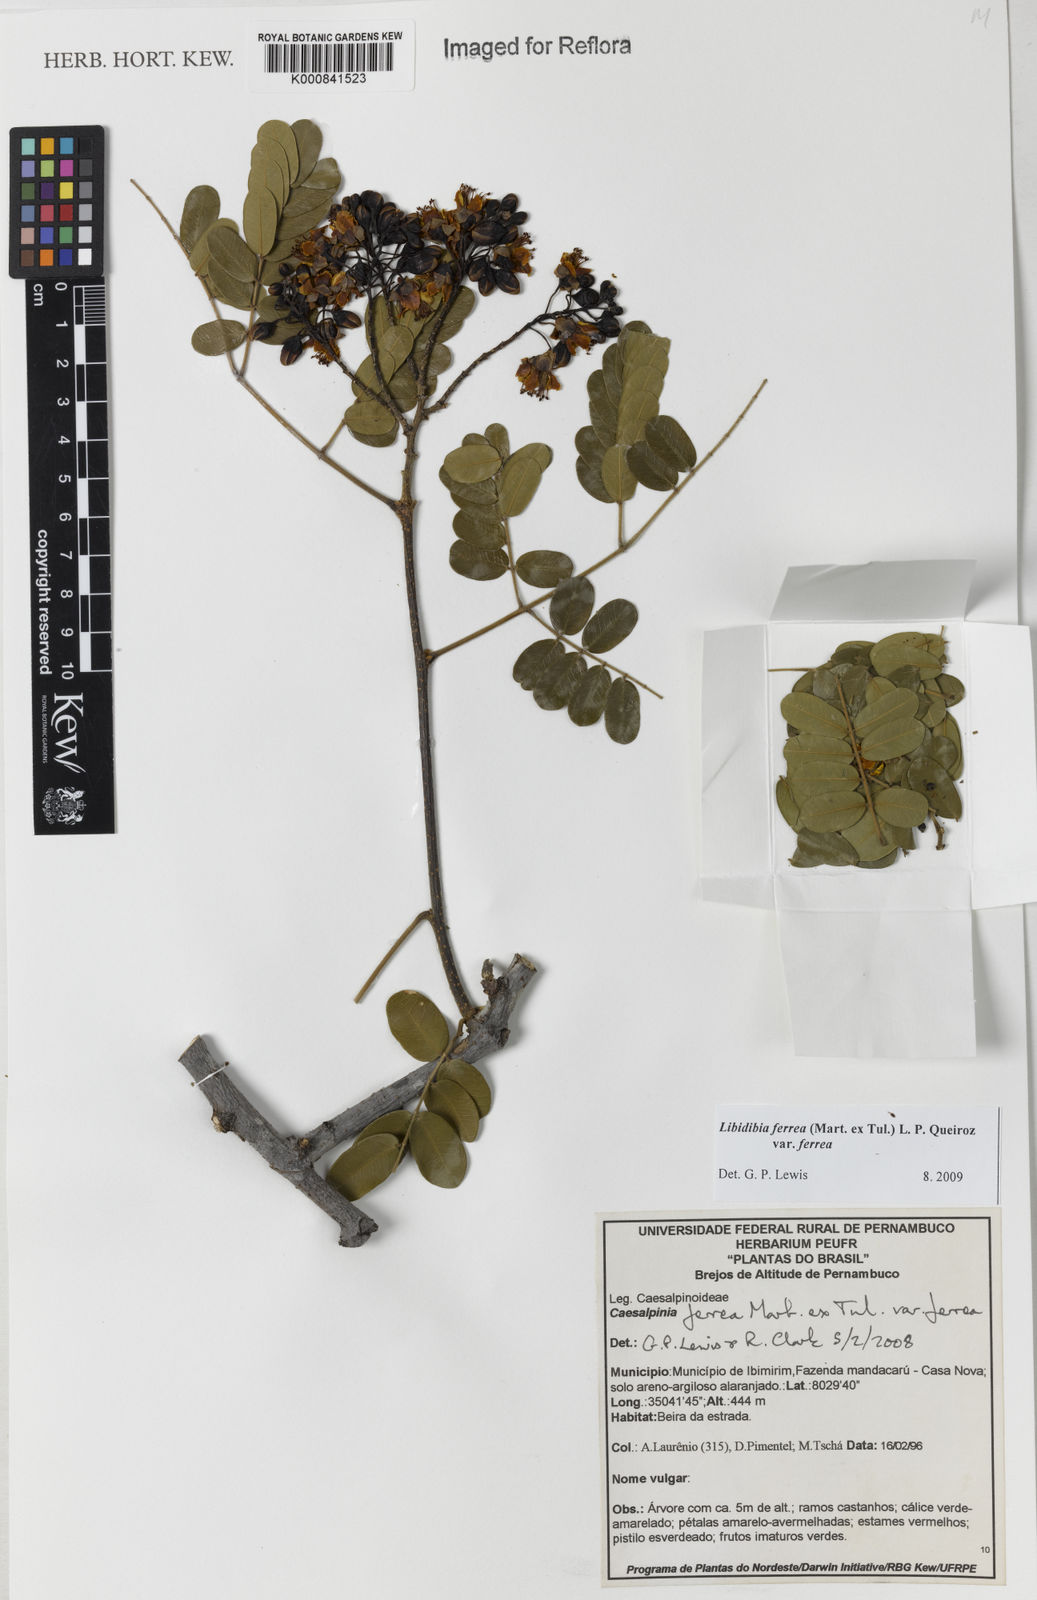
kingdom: Plantae
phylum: Tracheophyta
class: Magnoliopsida
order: Fabales
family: Fabaceae
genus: Libidibia
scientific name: Libidibia ferrea
